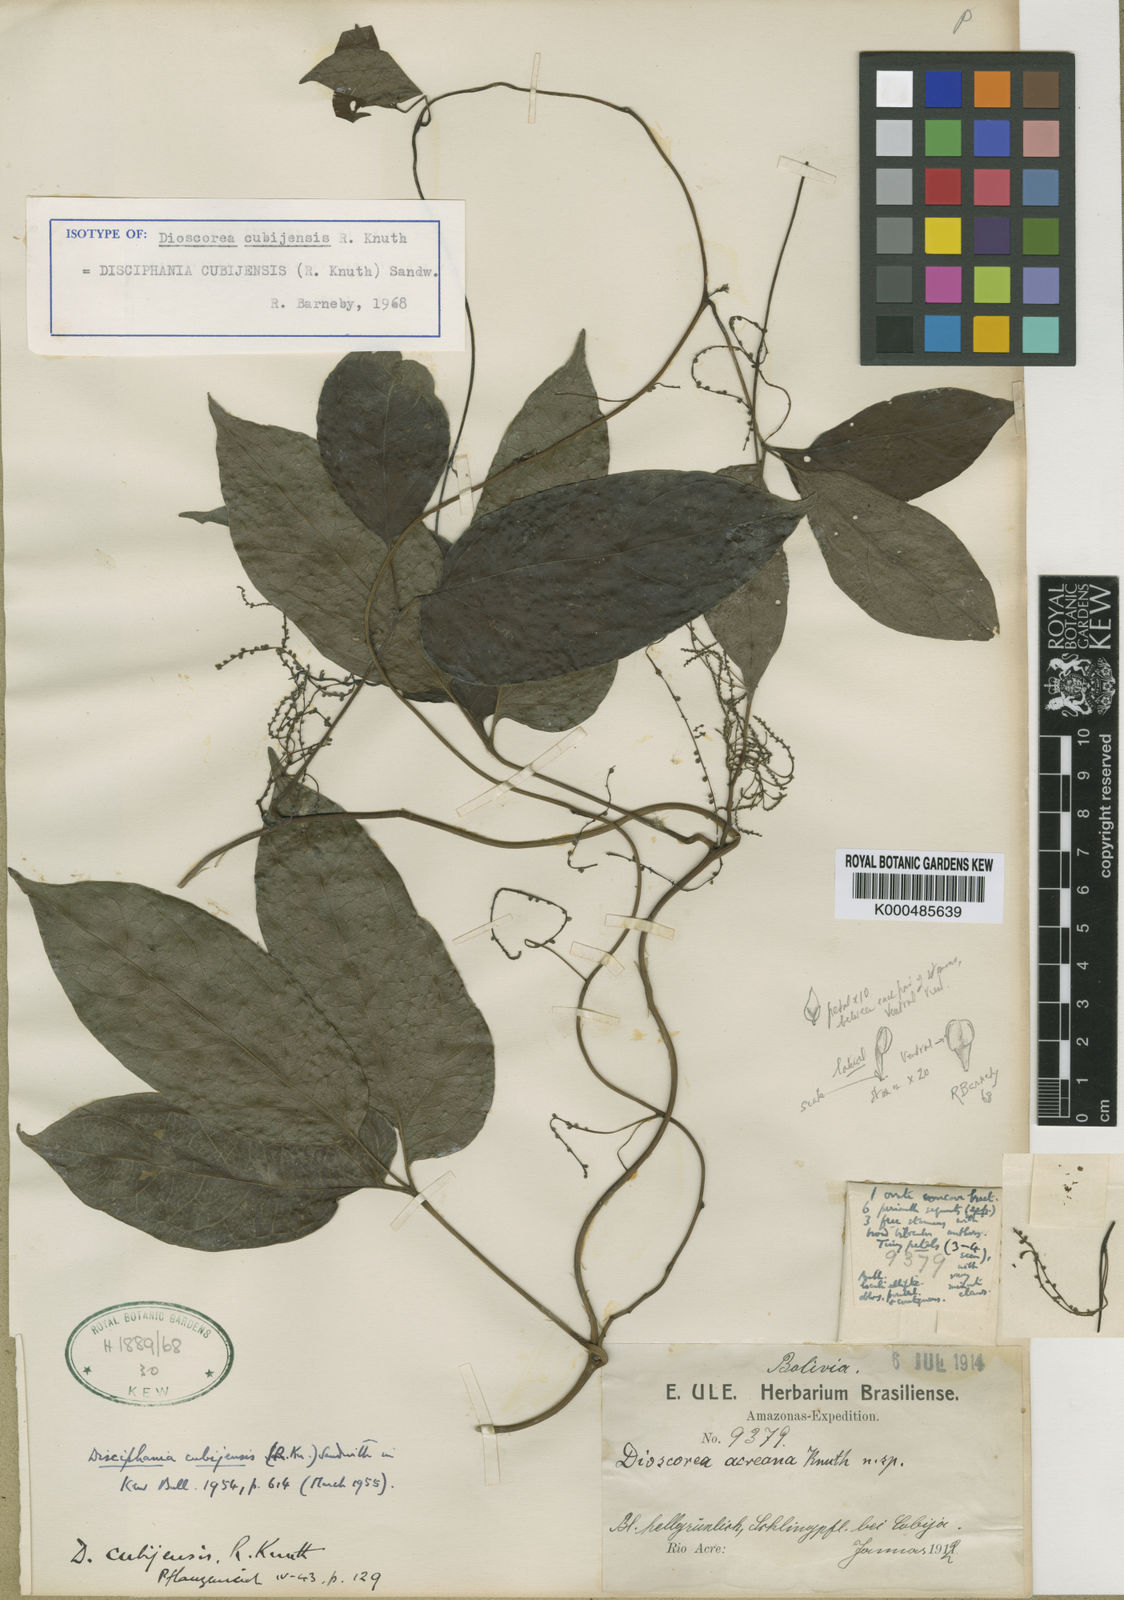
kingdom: Plantae
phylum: Tracheophyta
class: Magnoliopsida
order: Ranunculales
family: Menispermaceae
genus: Disciphania
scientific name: Disciphania cubijensis
